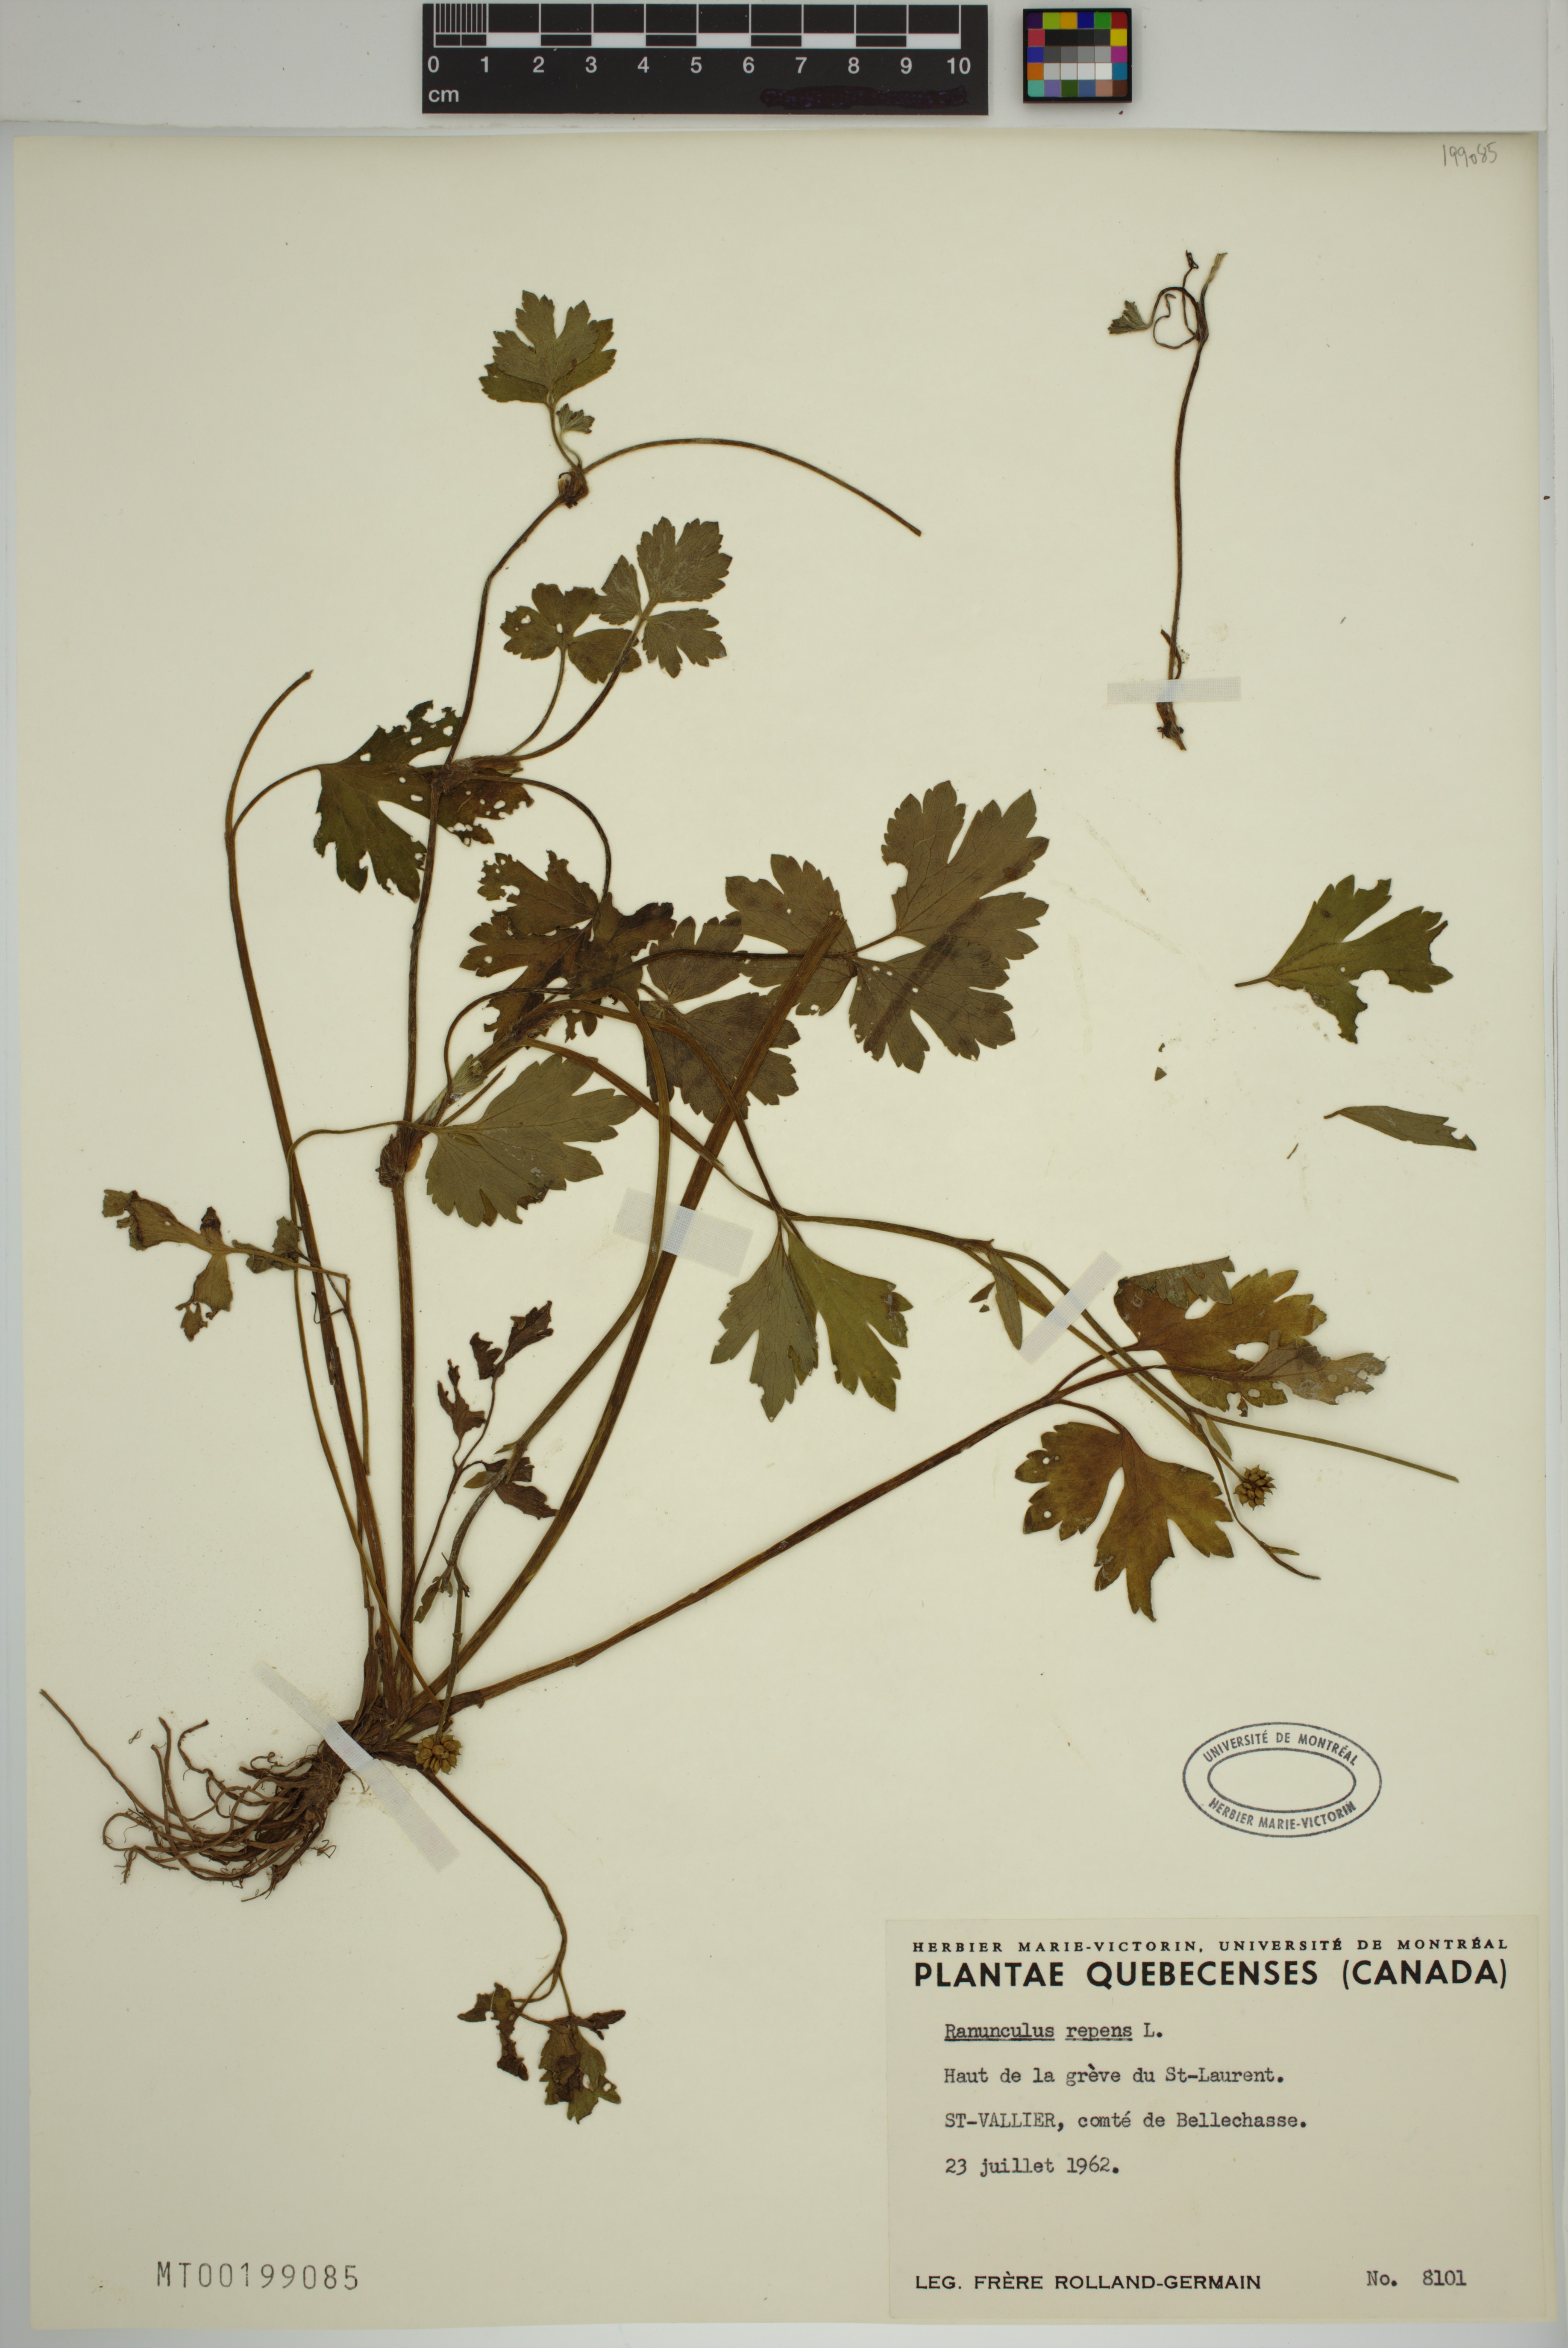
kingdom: Plantae
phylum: Tracheophyta
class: Magnoliopsida
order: Ranunculales
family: Ranunculaceae
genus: Ranunculus
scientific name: Ranunculus repens
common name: Creeping buttercup
